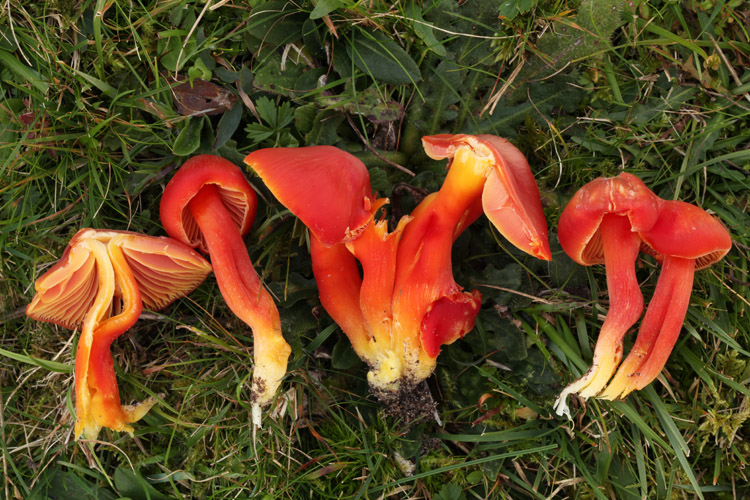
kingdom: Fungi
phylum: Basidiomycota
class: Agaricomycetes
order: Agaricales
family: Hygrophoraceae
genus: Hygrocybe
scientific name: Hygrocybe splendidissima
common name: knaldrød vokshat
